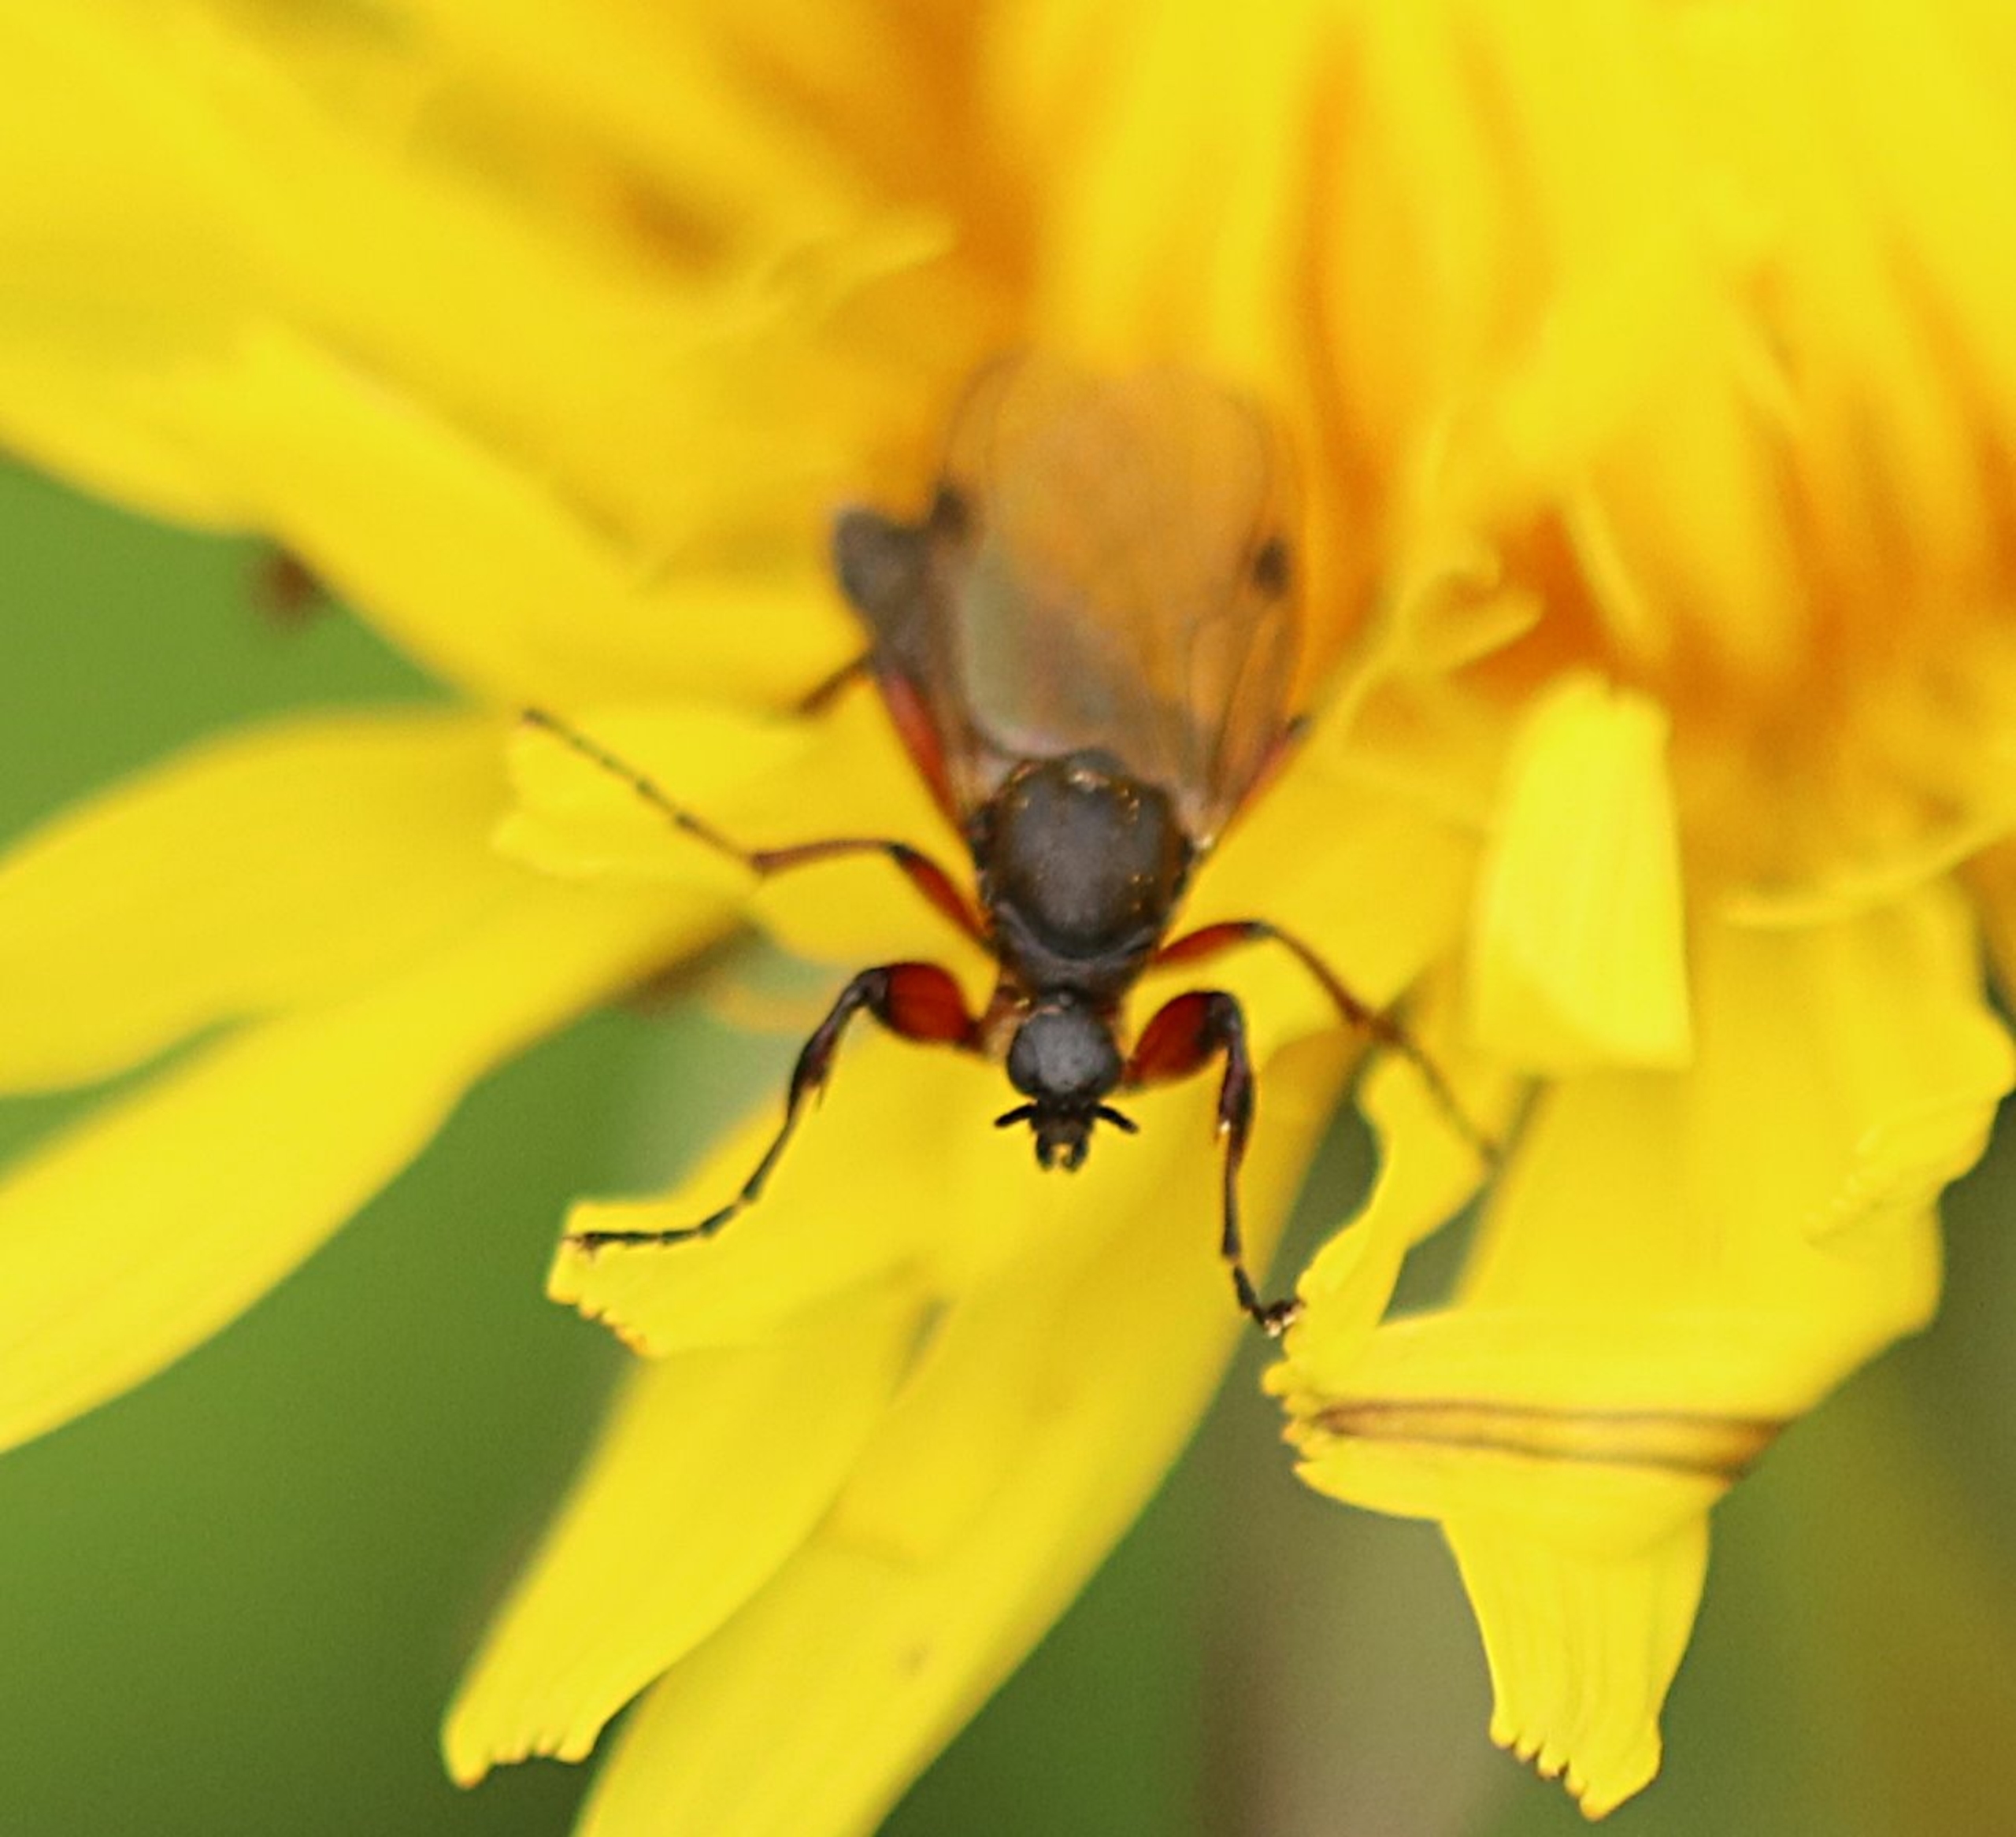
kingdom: Animalia
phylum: Arthropoda
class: Insecta
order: Diptera
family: Bibionidae
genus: Bibio
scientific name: Bibio varipes
